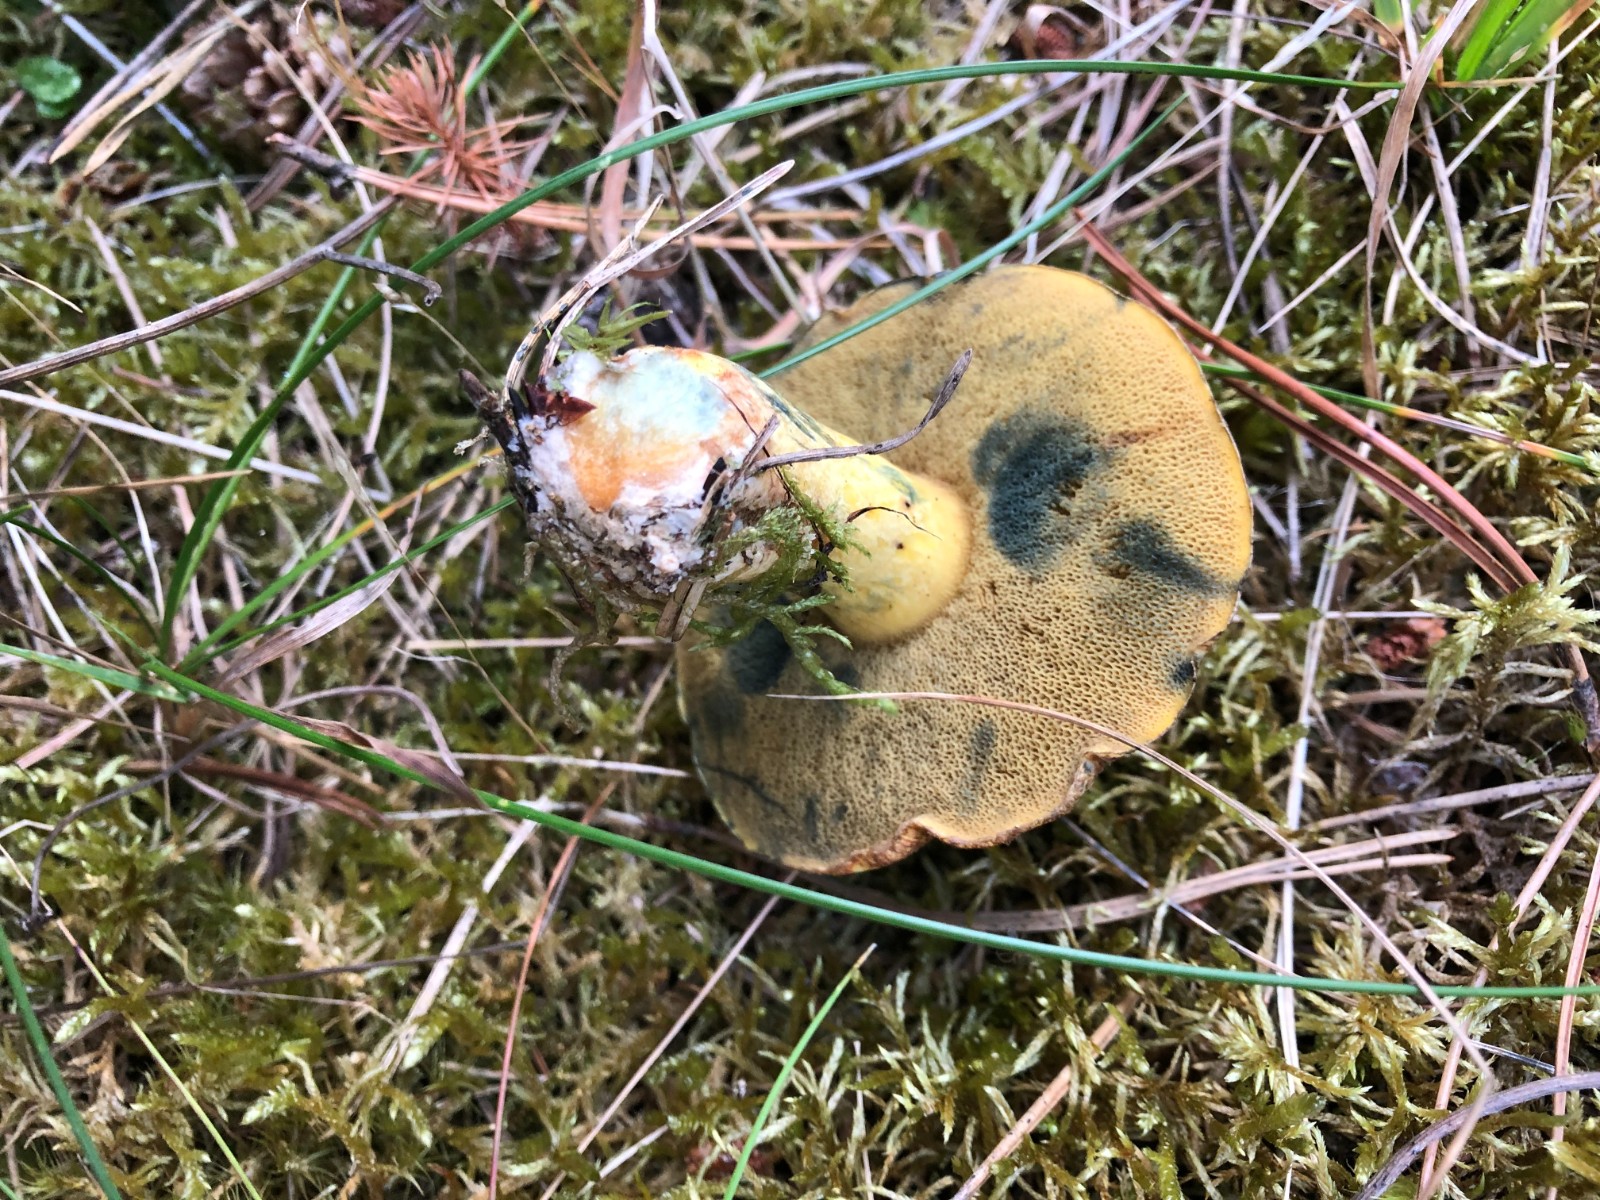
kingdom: Fungi
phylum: Basidiomycota
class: Agaricomycetes
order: Boletales
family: Suillaceae
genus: Suillus
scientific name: Suillus variegatus
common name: broget slimrørhat
